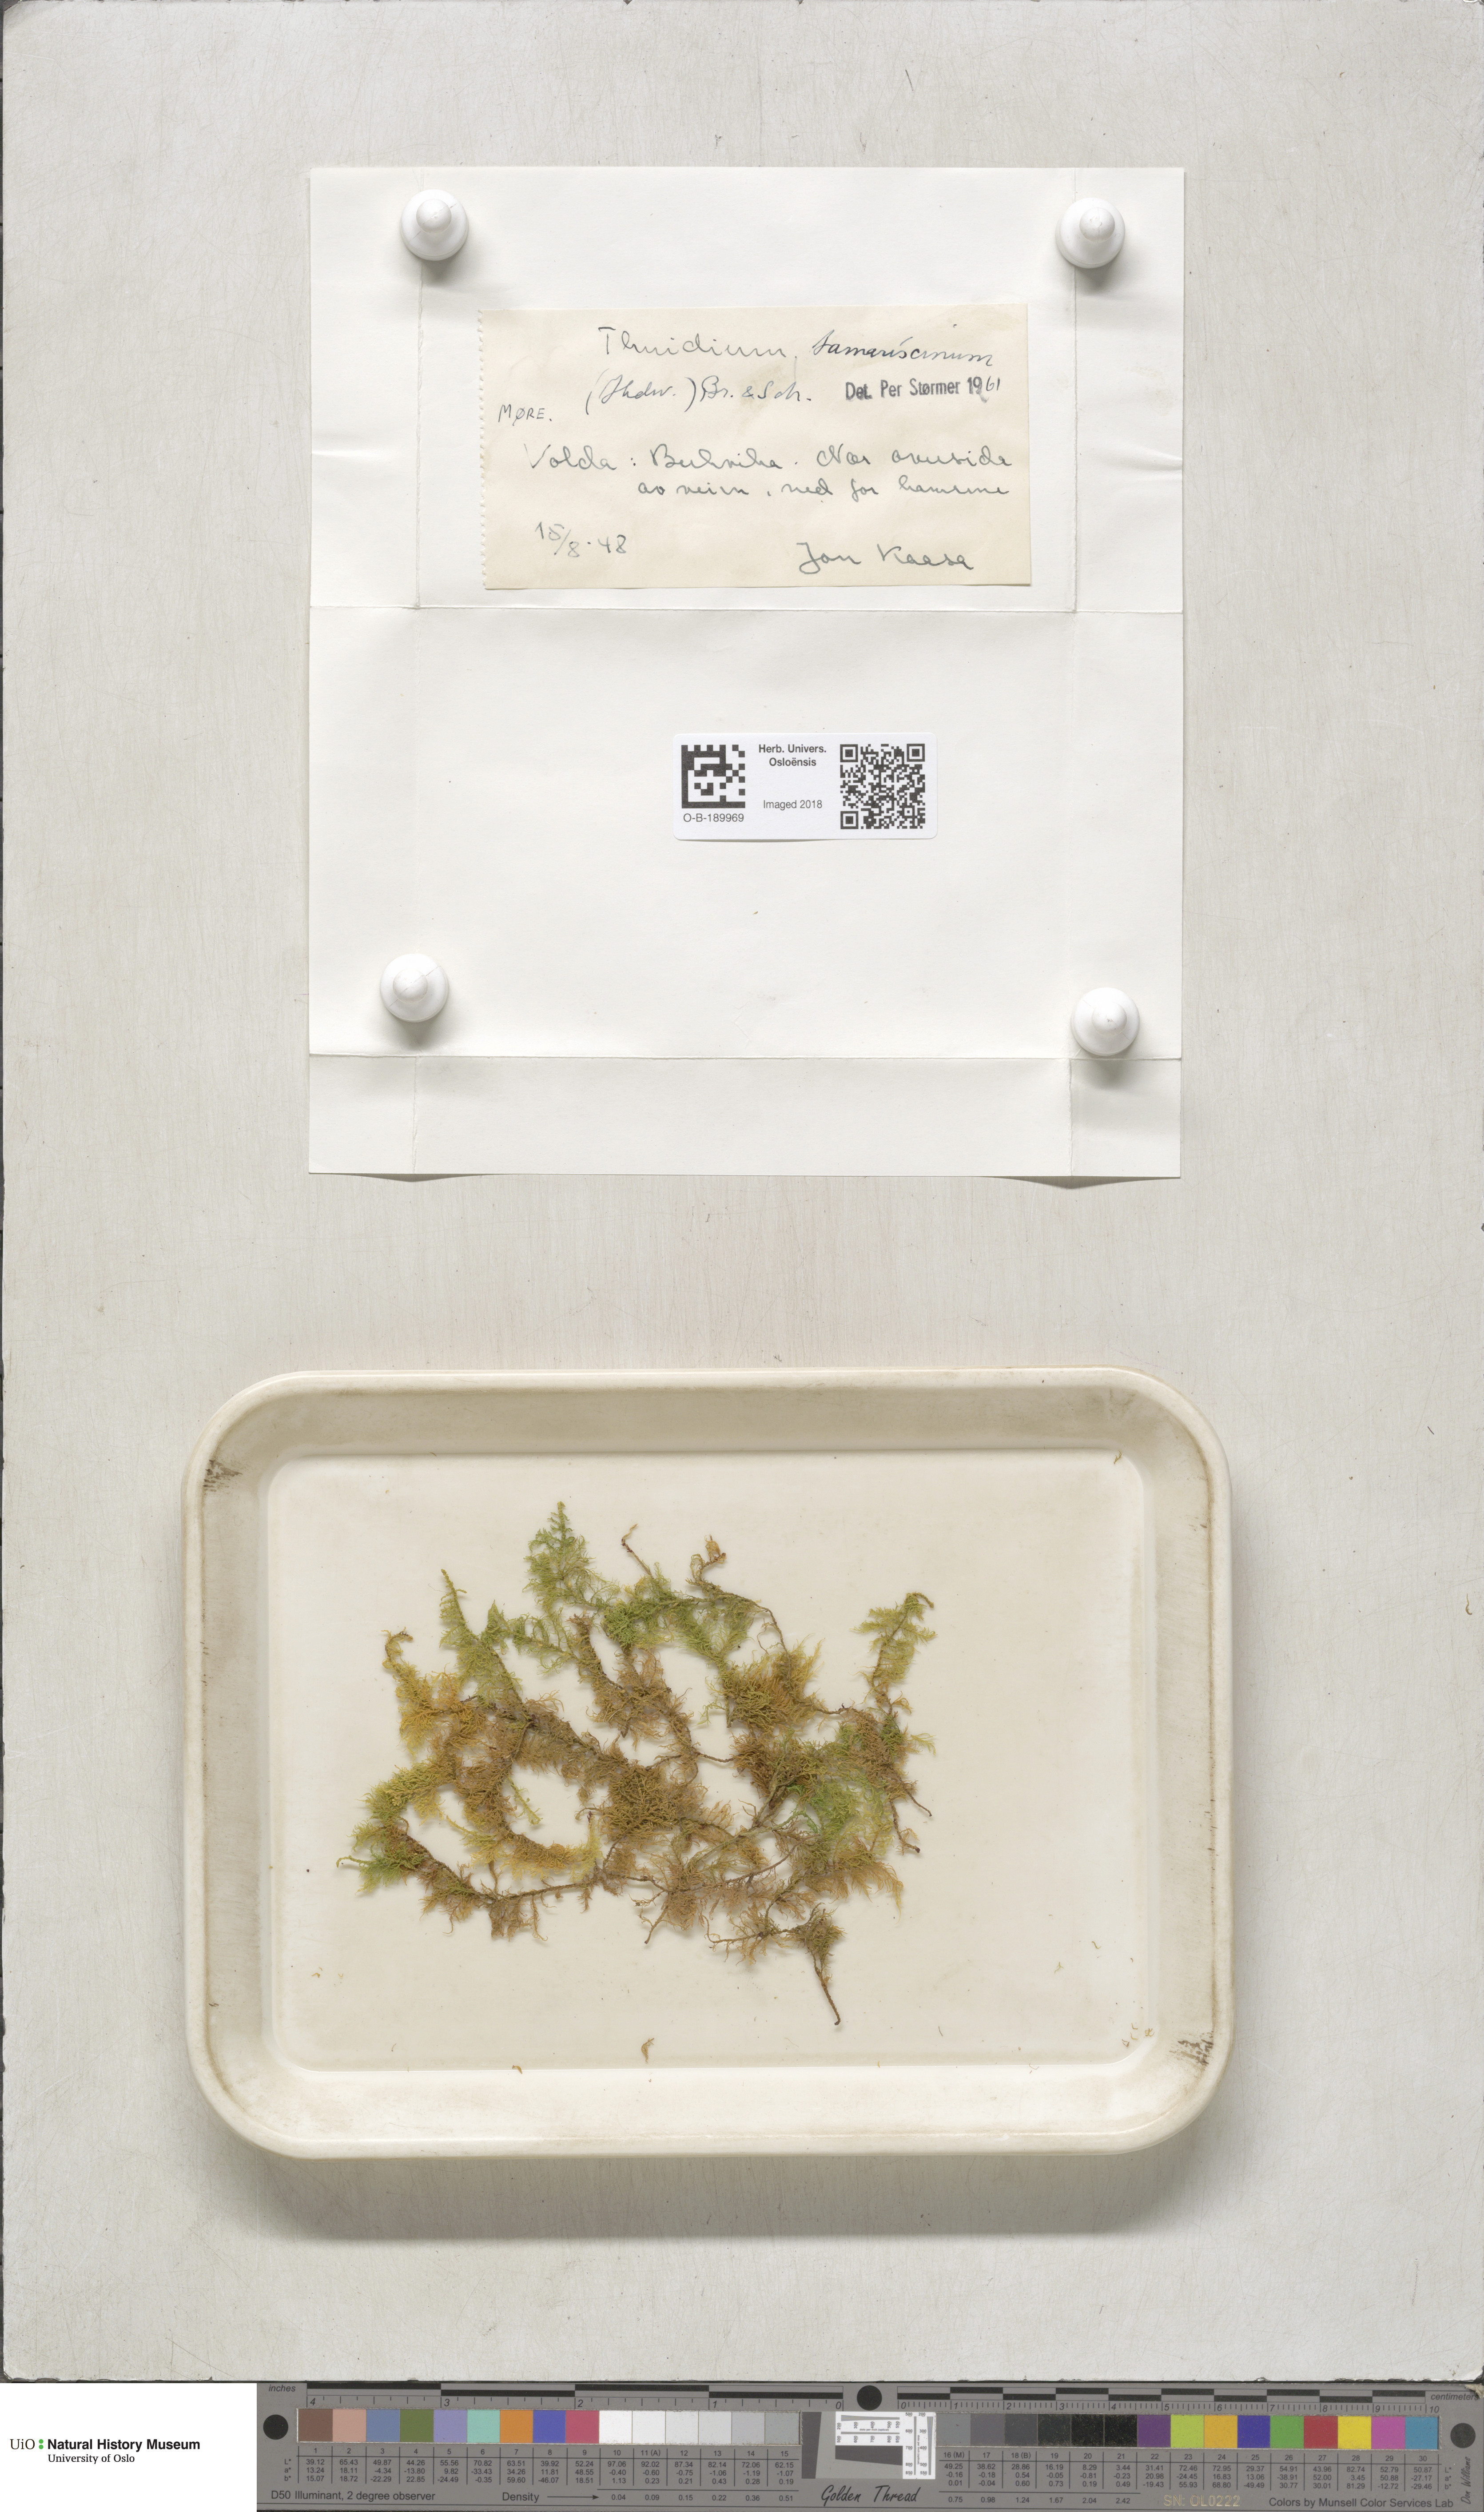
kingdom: Plantae
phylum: Bryophyta
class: Bryopsida
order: Hypnales
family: Thuidiaceae
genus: Thuidium
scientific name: Thuidium tamariscinum
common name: Common tamarisk-moss
